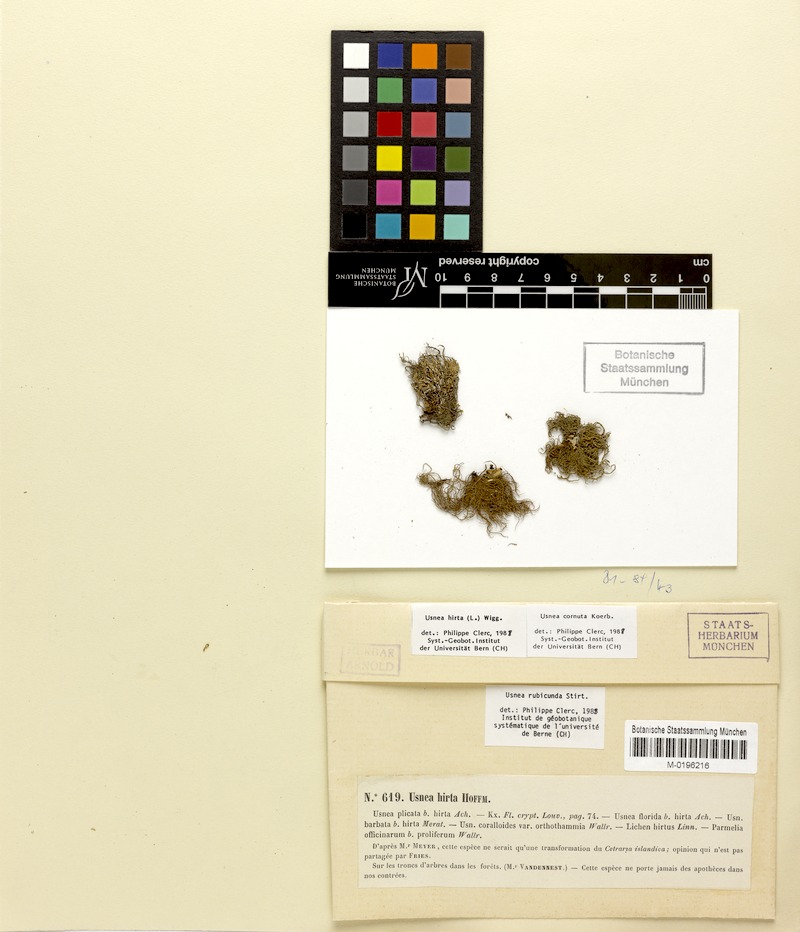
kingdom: Fungi
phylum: Ascomycota
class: Lecanoromycetes
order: Lecanorales
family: Parmeliaceae
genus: Usnea
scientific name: Usnea rubicunda
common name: Red beard lichen
